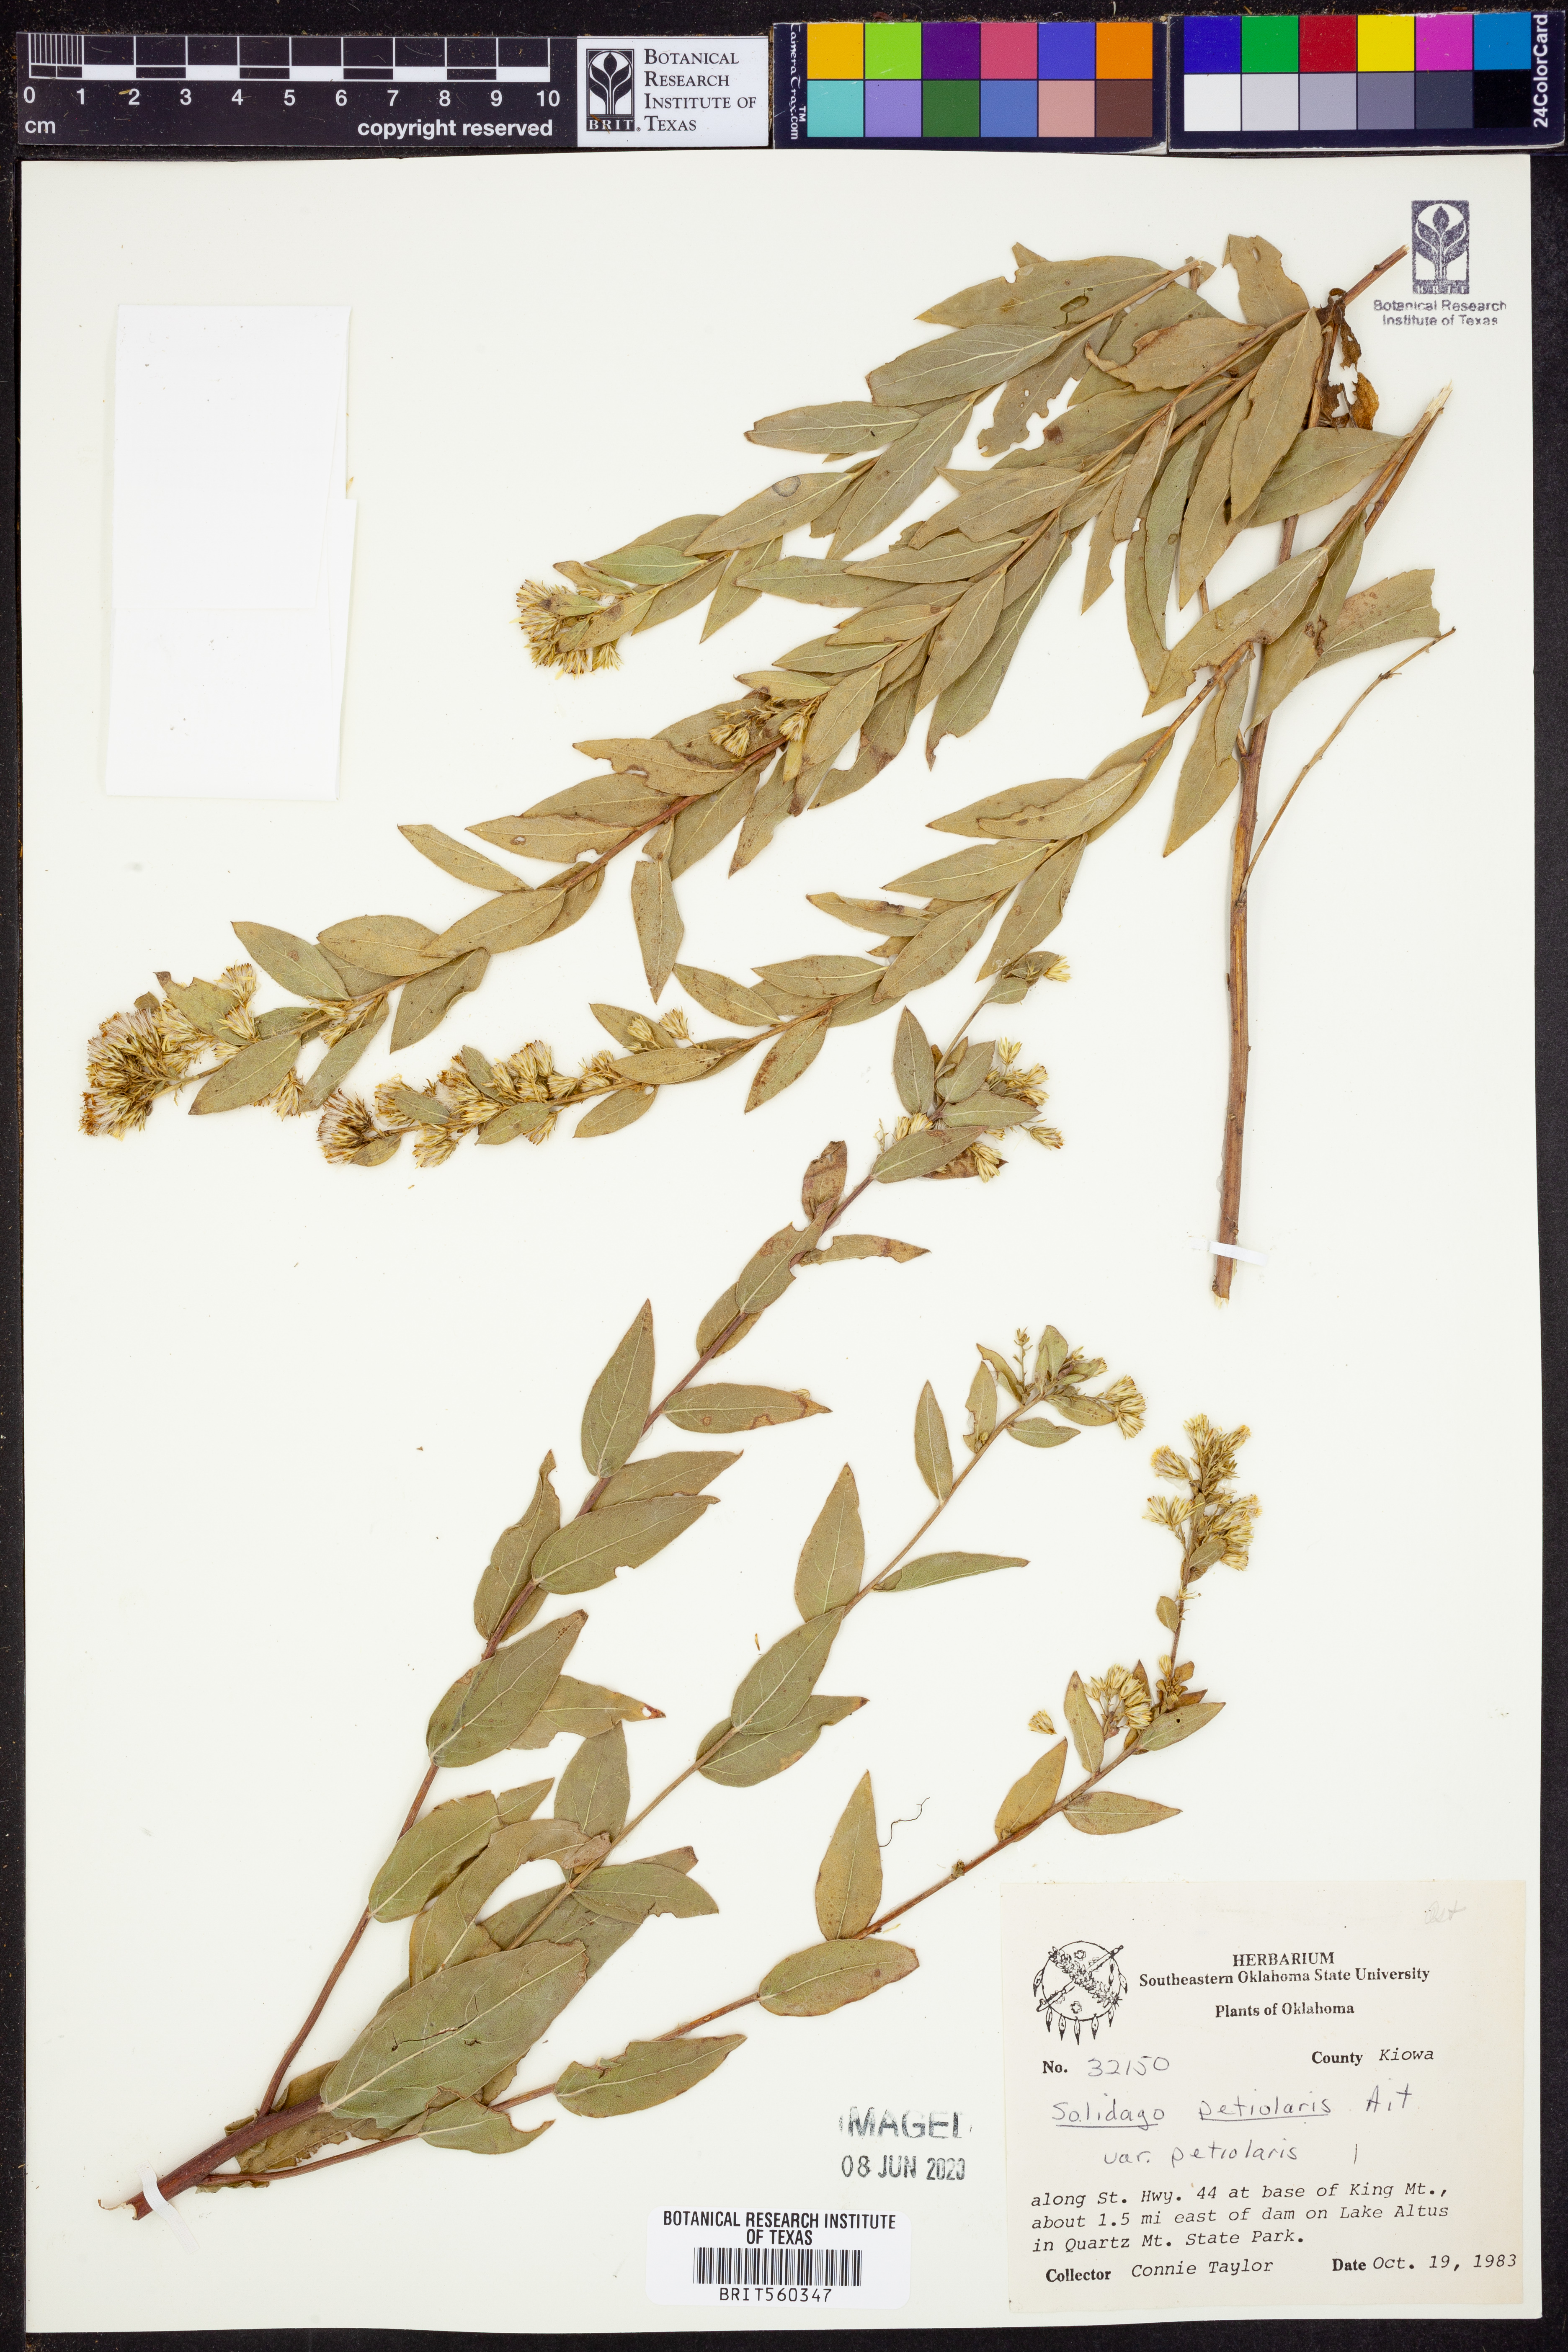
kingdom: Plantae
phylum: Tracheophyta
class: Magnoliopsida
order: Asterales
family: Asteraceae
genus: Solidago
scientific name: Solidago petiolaris
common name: Downy ragged goldenrod
